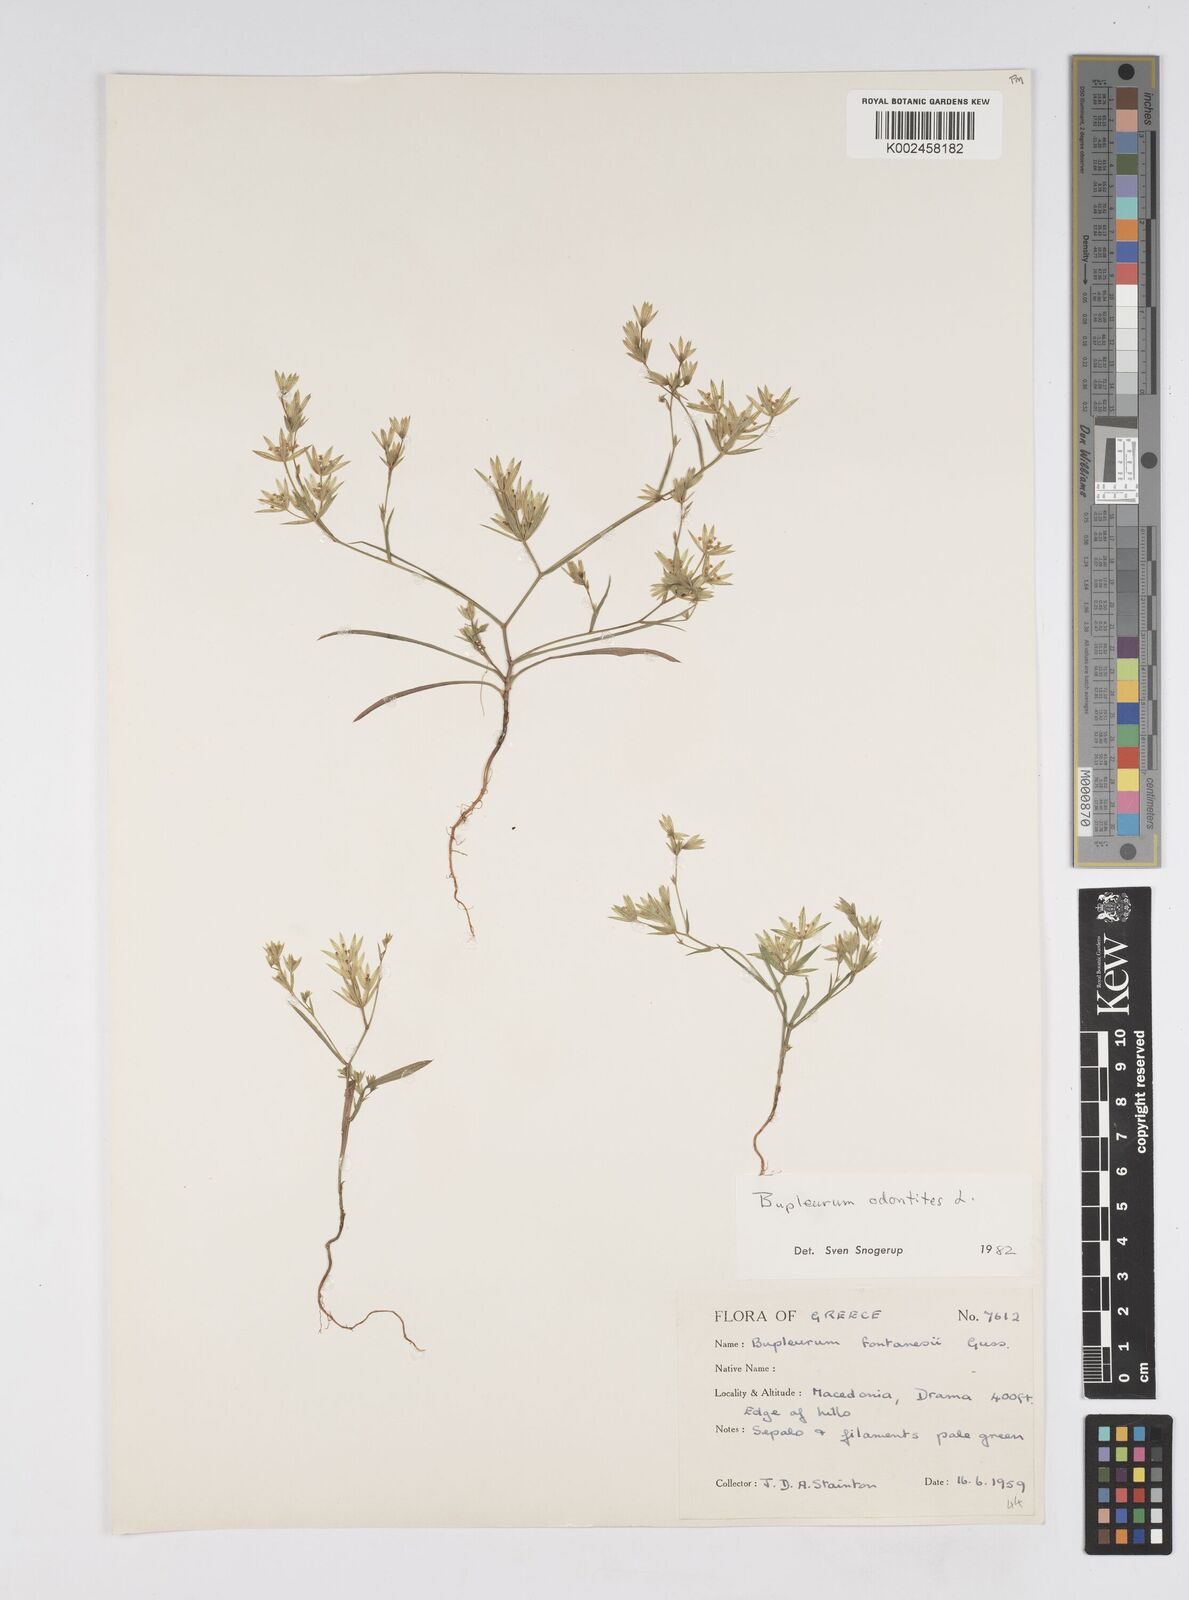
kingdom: Plantae
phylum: Tracheophyta
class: Magnoliopsida
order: Apiales
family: Apiaceae
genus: Bupleurum
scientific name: Bupleurum odontites
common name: Narrowleaf thorow wax
